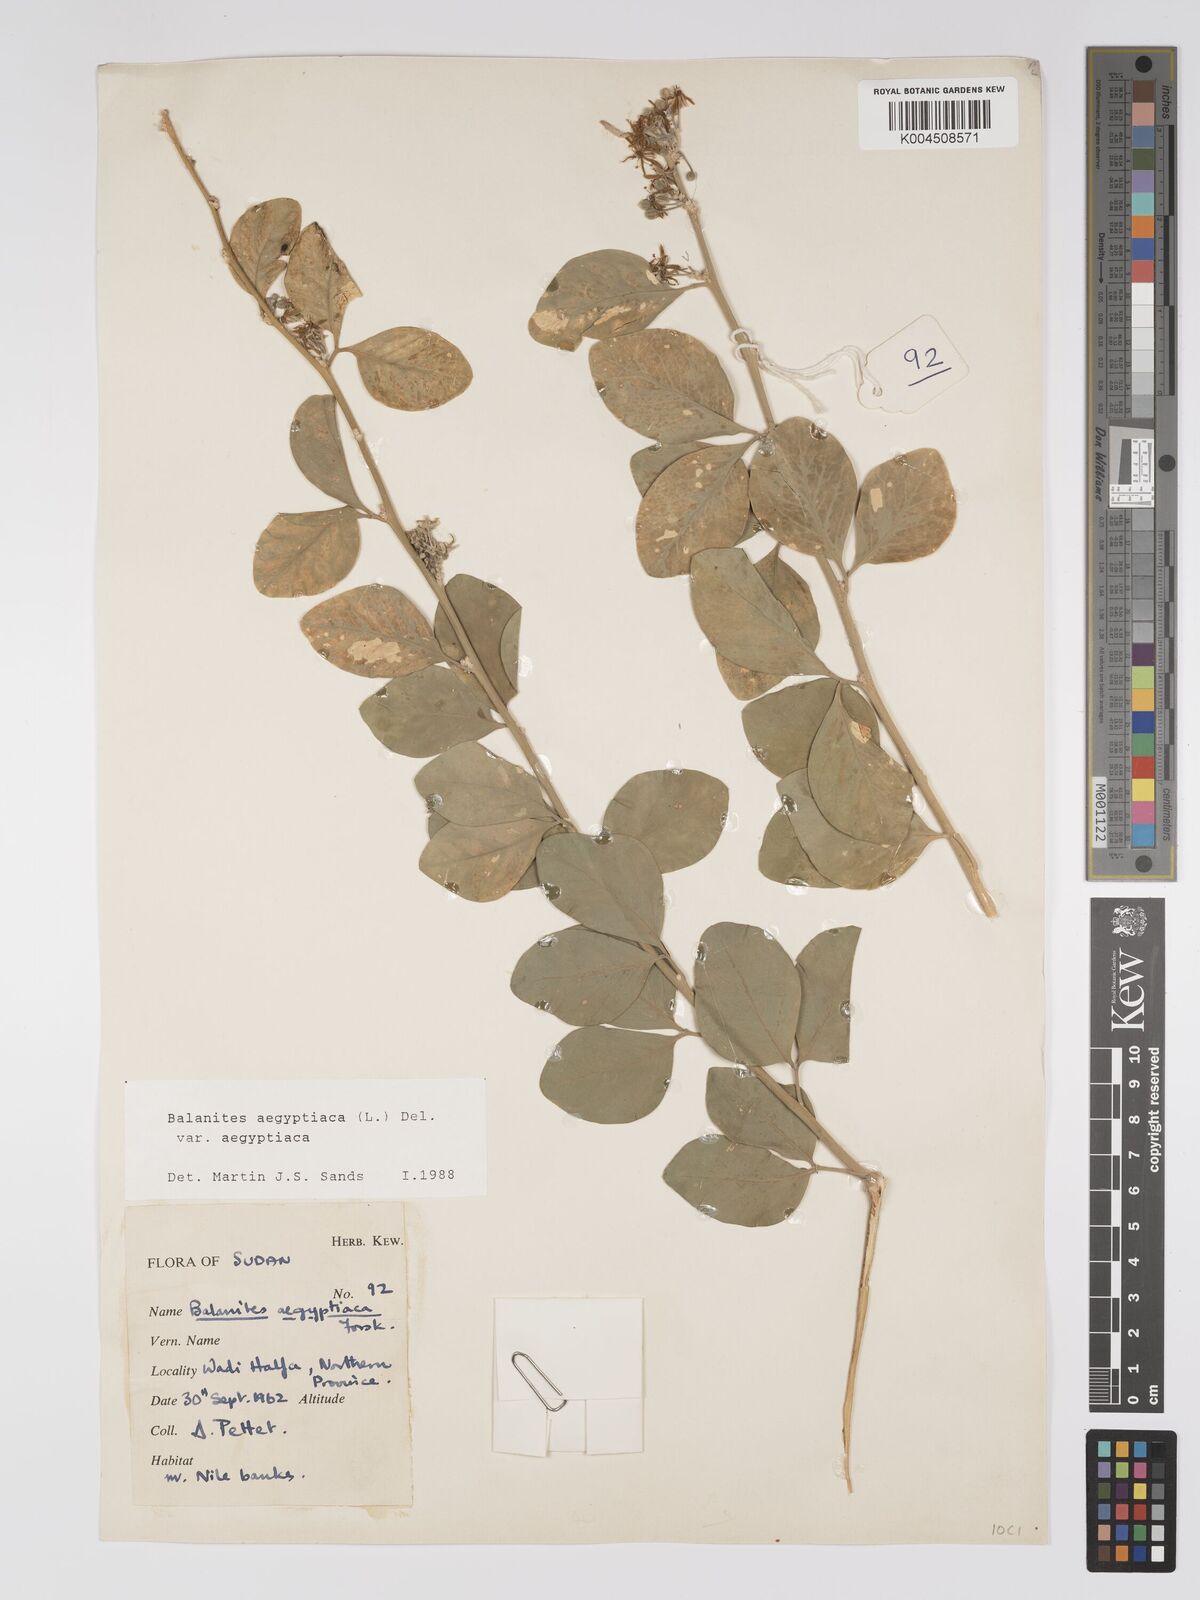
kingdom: Plantae
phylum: Tracheophyta
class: Magnoliopsida
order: Zygophyllales
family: Zygophyllaceae
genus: Balanites
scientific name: Balanites aegyptiaca
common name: Balanites
